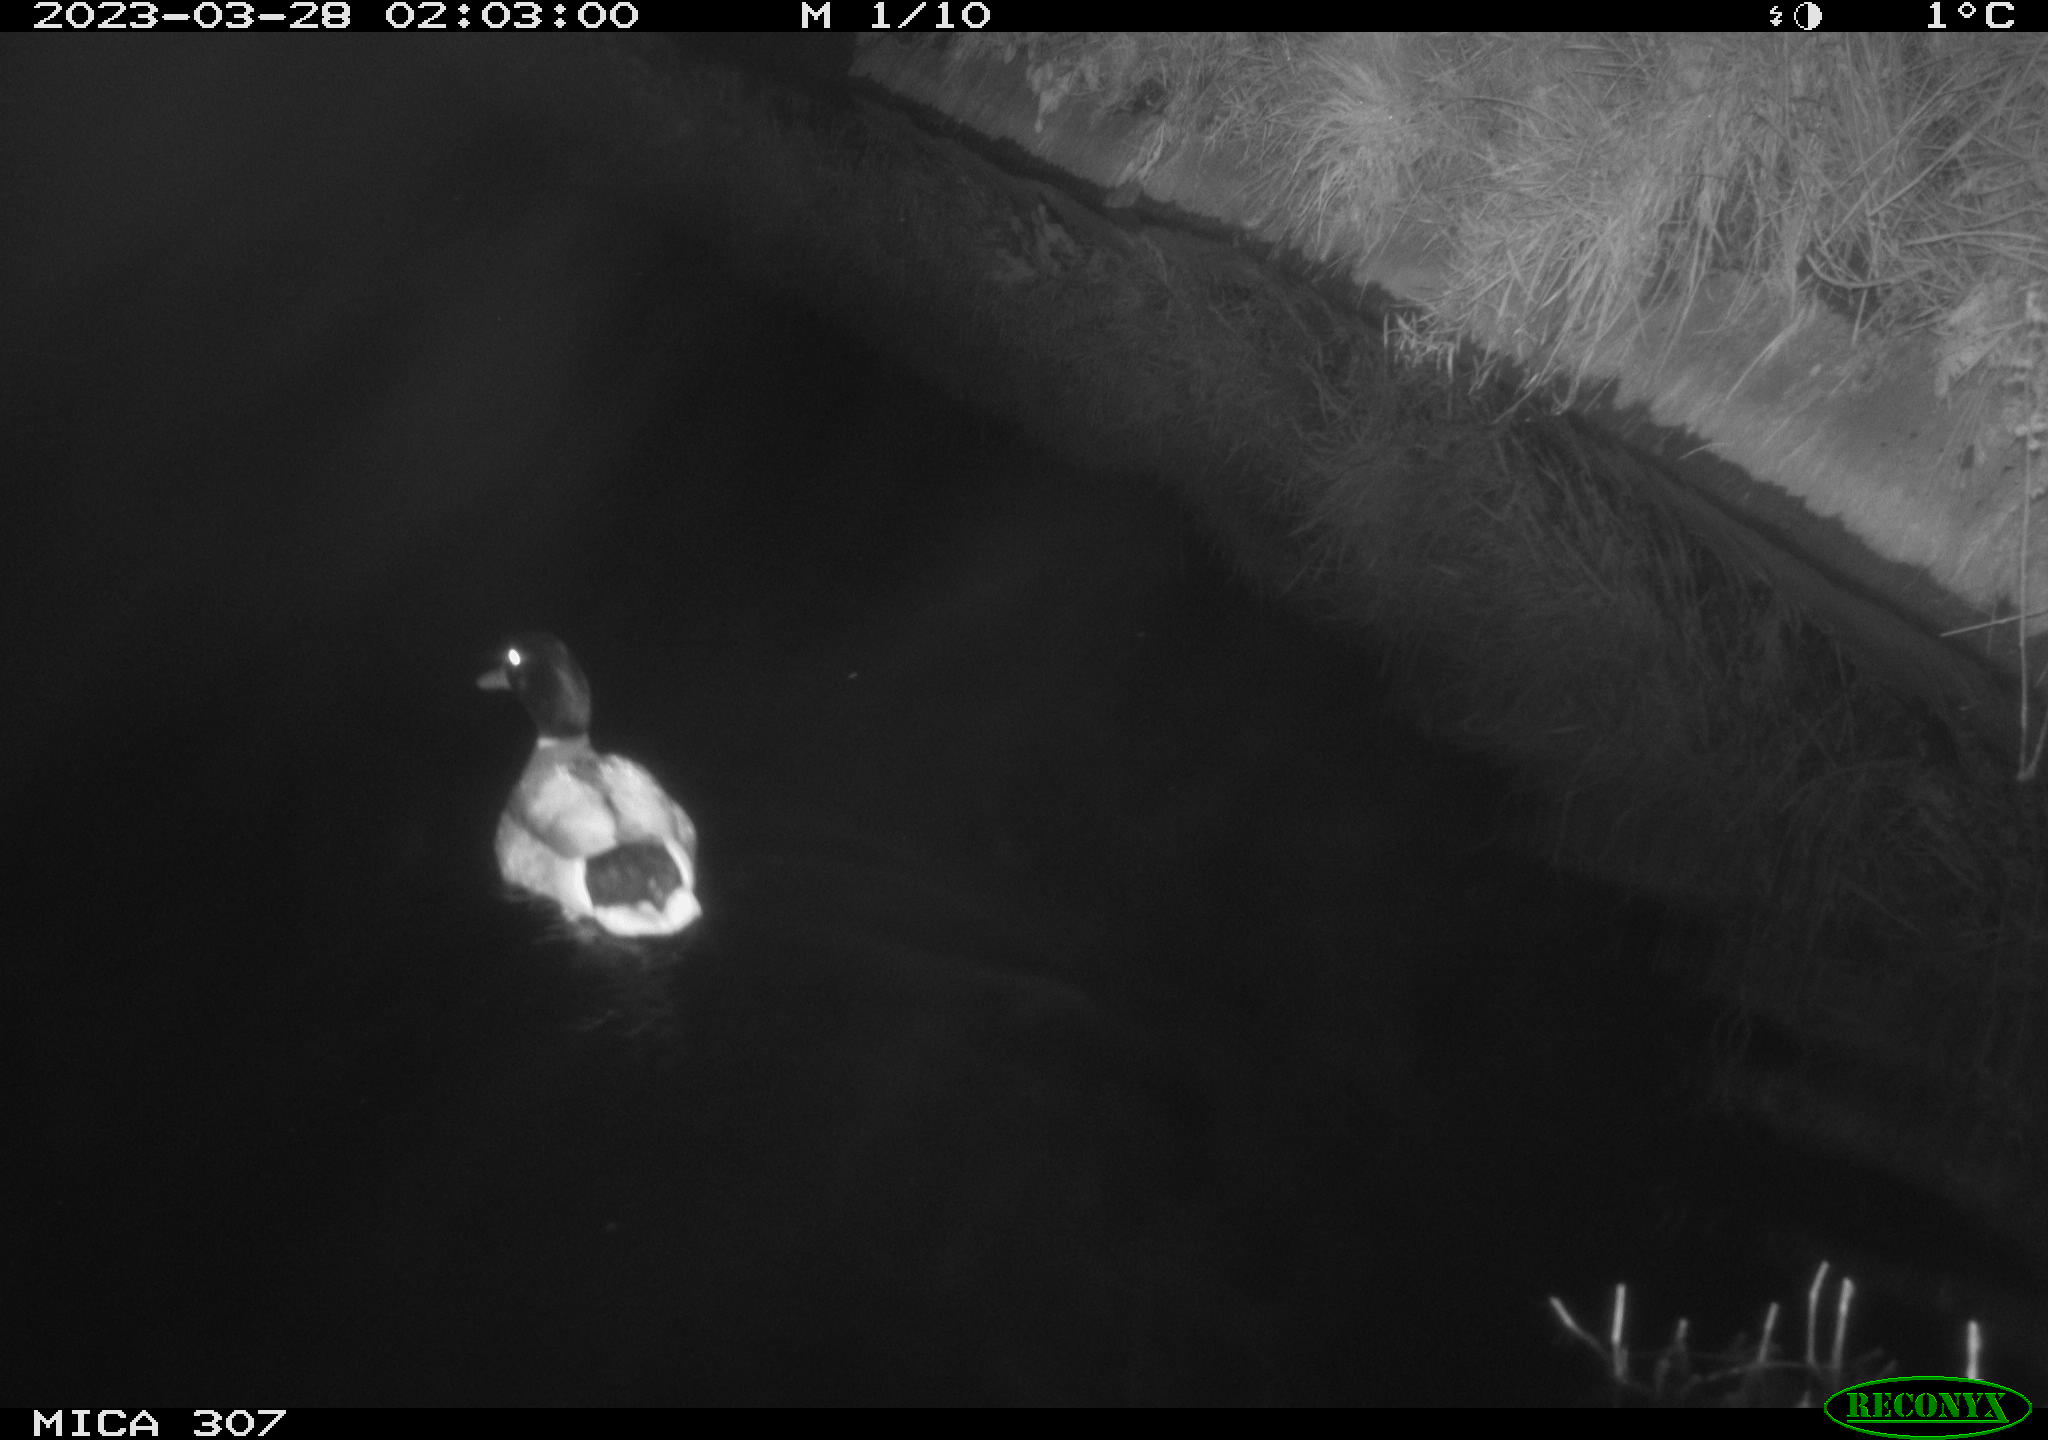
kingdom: Animalia
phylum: Chordata
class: Aves
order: Anseriformes
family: Anatidae
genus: Anas
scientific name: Anas
